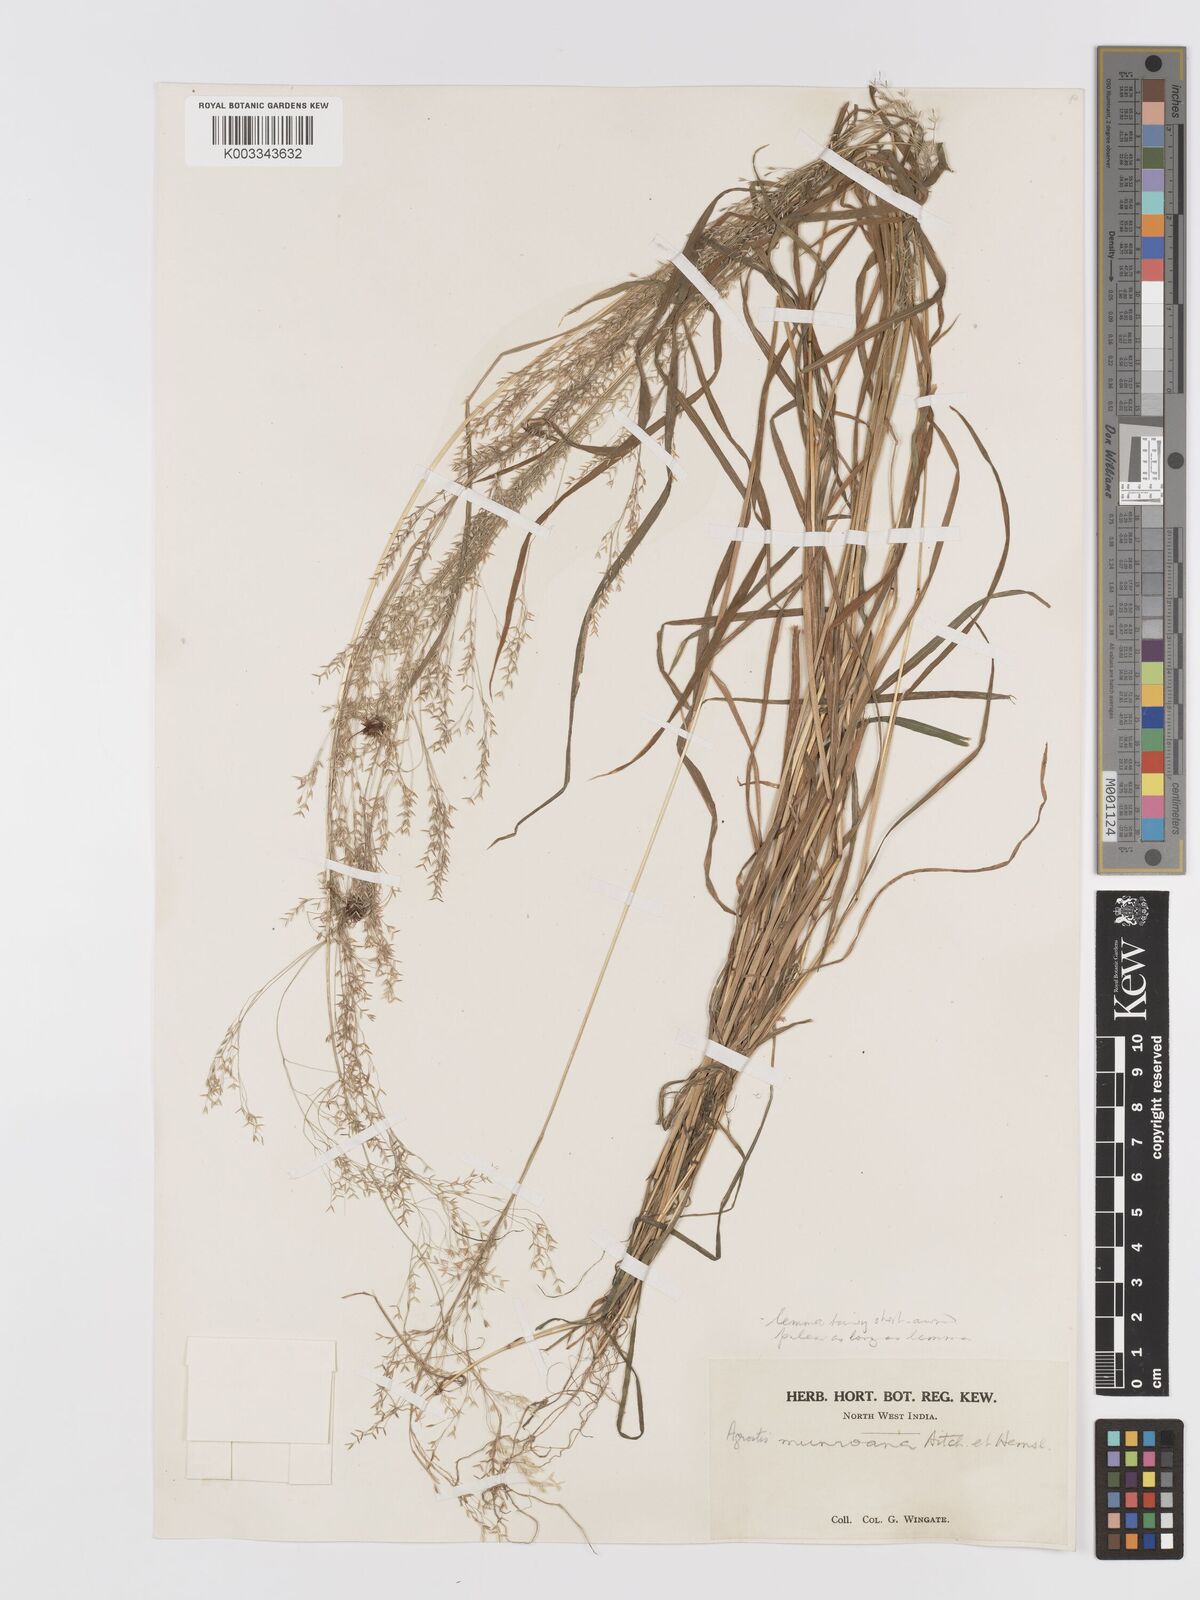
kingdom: Plantae
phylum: Tracheophyta
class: Liliopsida
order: Poales
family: Poaceae
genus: Agrostis
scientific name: Agrostis munroana
